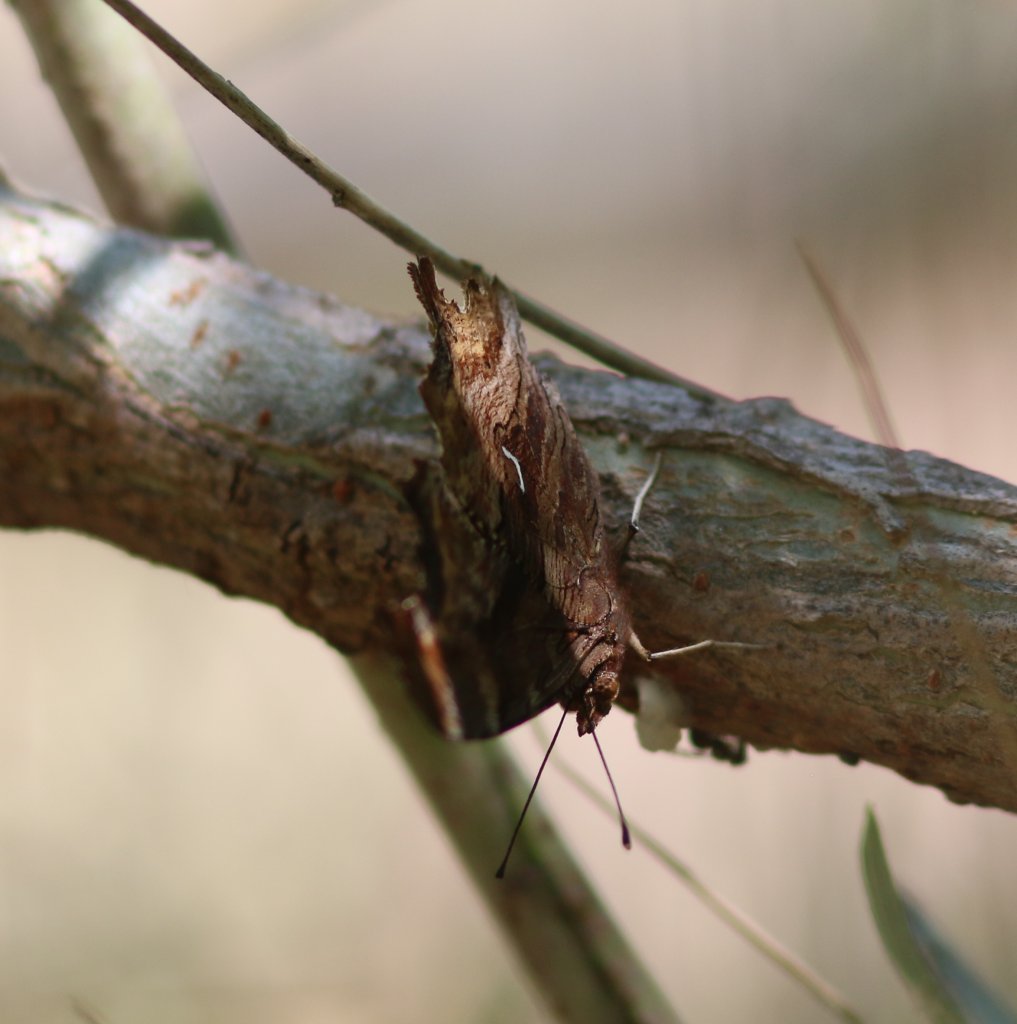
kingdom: Animalia
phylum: Arthropoda
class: Insecta
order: Lepidoptera
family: Nymphalidae
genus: Polygonia
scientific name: Polygonia satyrus
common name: Satyr Comma
